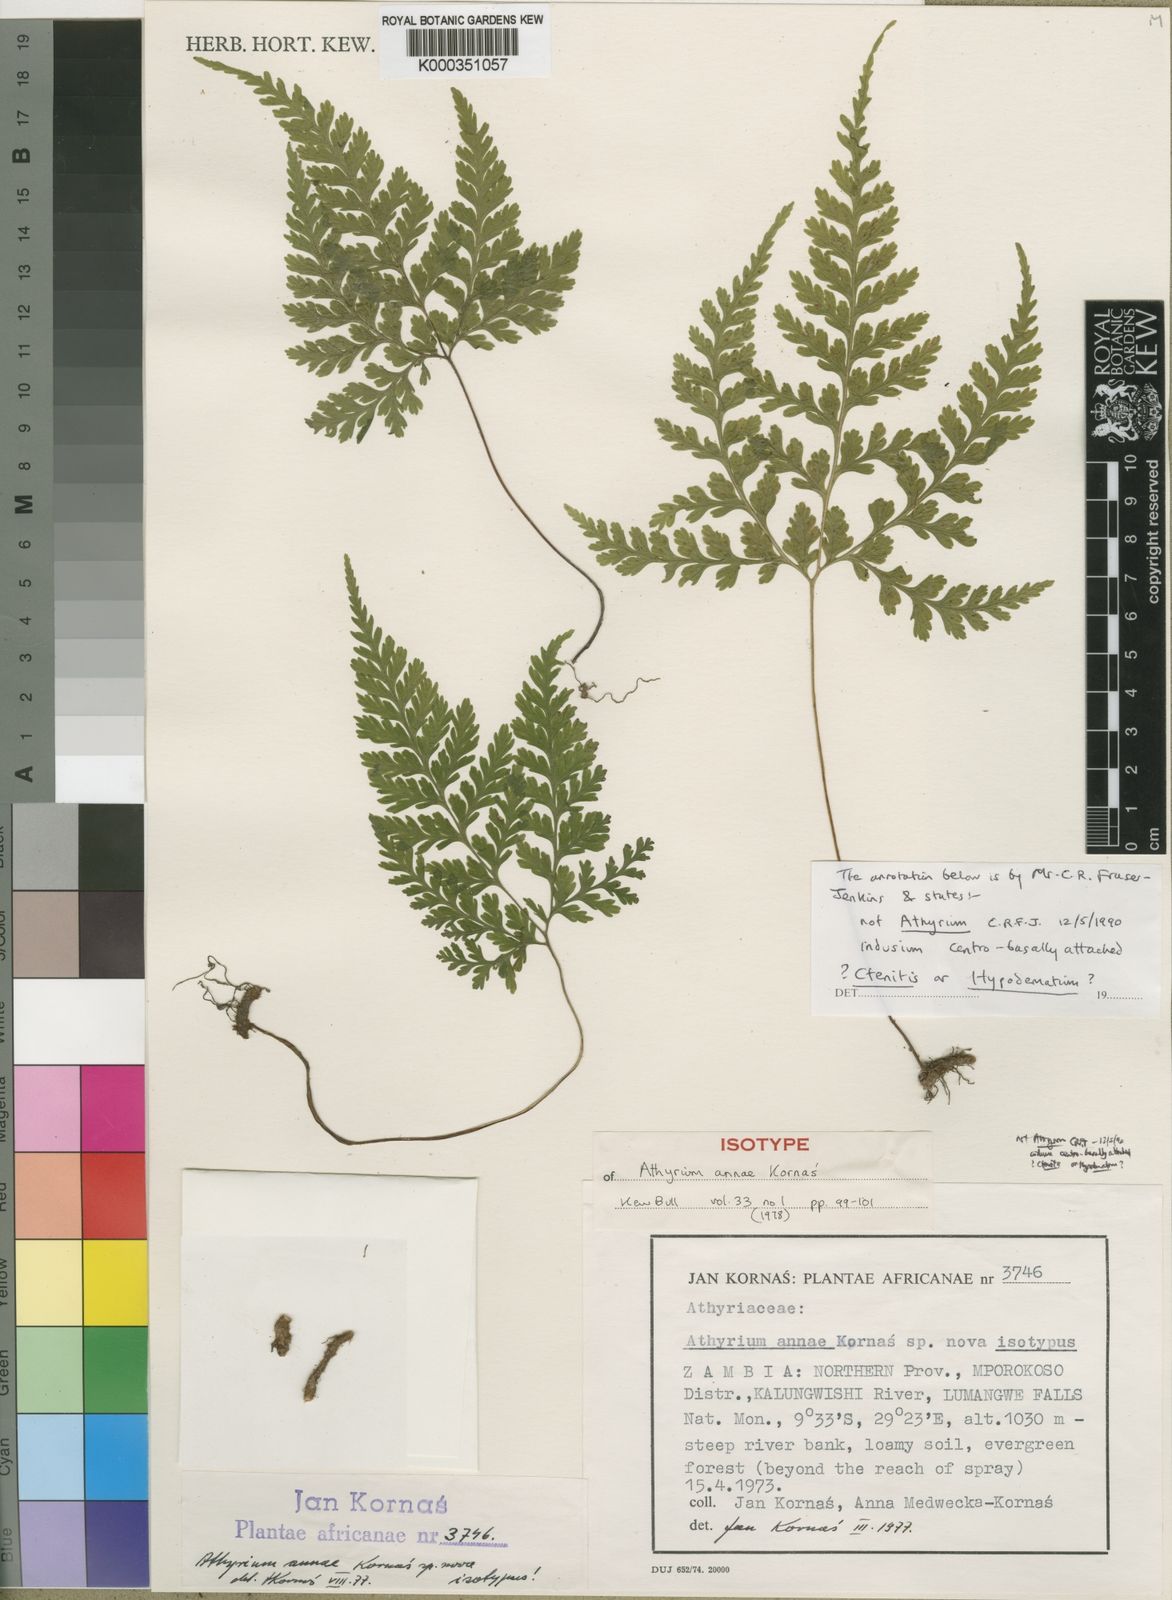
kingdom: Plantae
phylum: Tracheophyta
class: Polypodiopsida
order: Polypodiales
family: Athyriaceae
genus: Athyrium
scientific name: Athyrium annae
